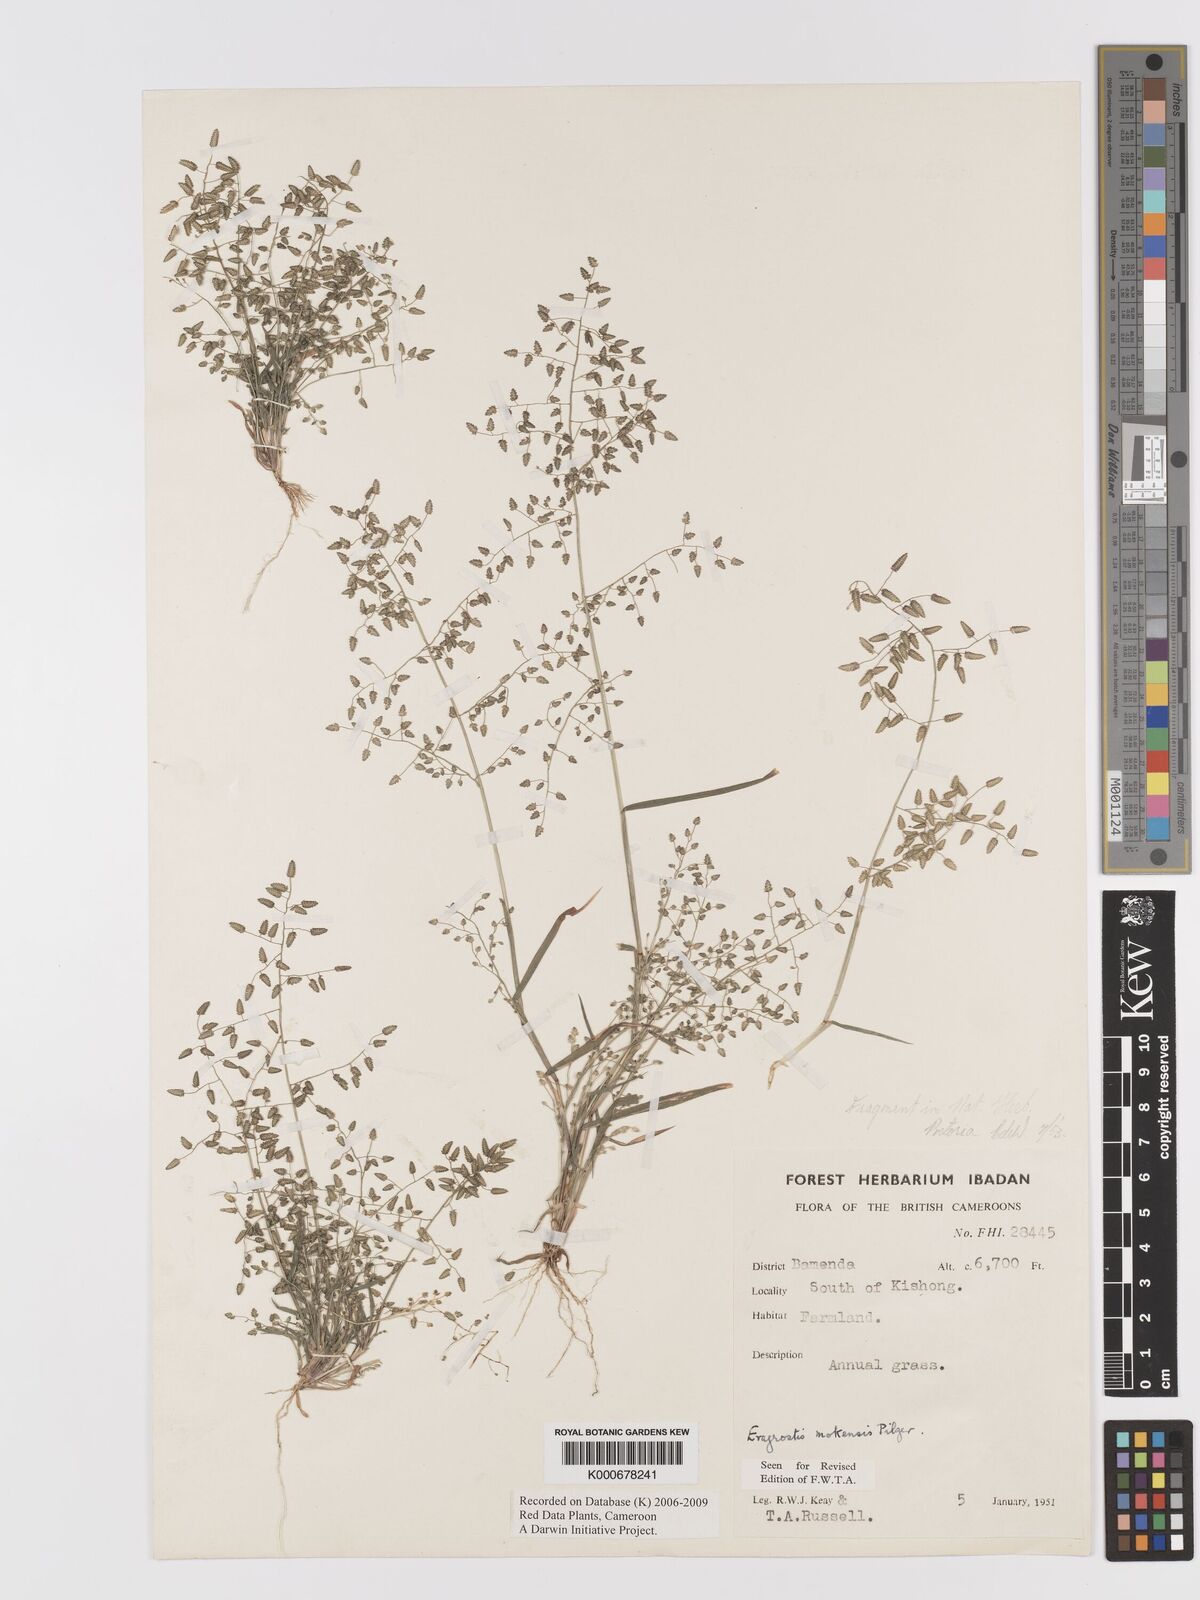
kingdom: Plantae
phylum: Tracheophyta
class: Liliopsida
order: Poales
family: Poaceae
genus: Eragrostis
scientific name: Eragrostis mokensis
